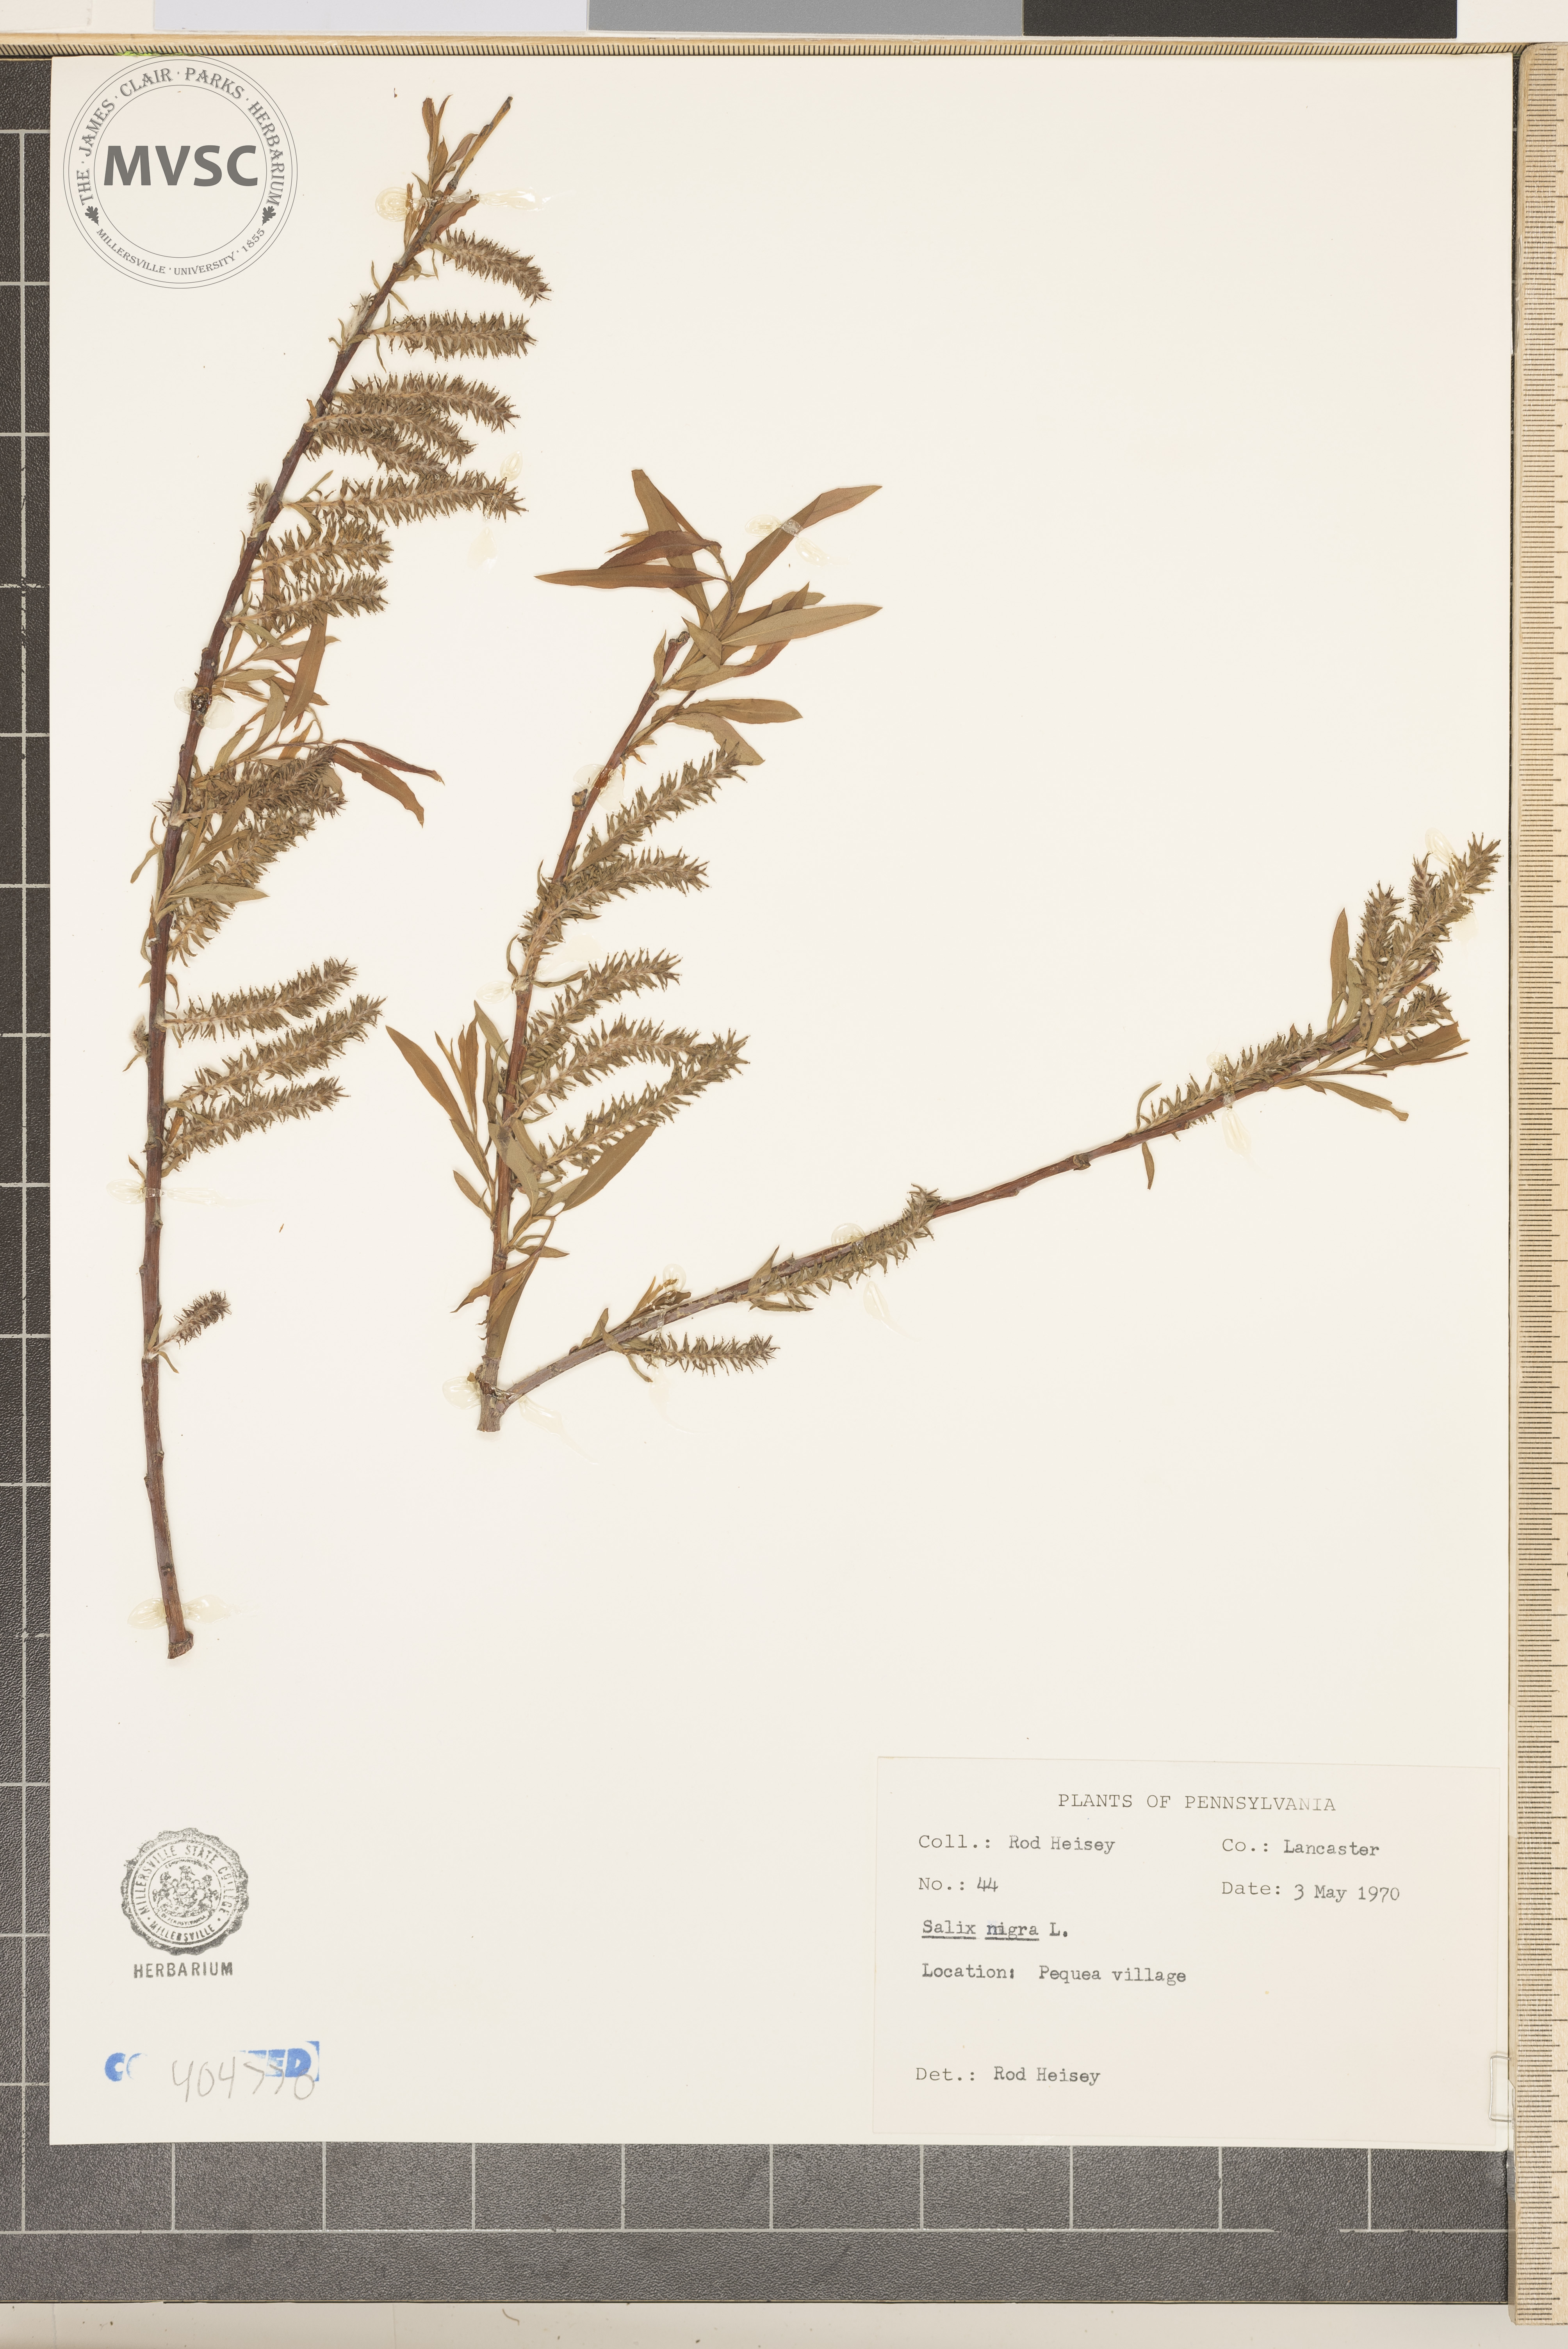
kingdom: Plantae
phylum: Tracheophyta
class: Magnoliopsida
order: Malpighiales
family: Salicaceae
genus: Salix
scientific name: Salix nigra
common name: Black willow
